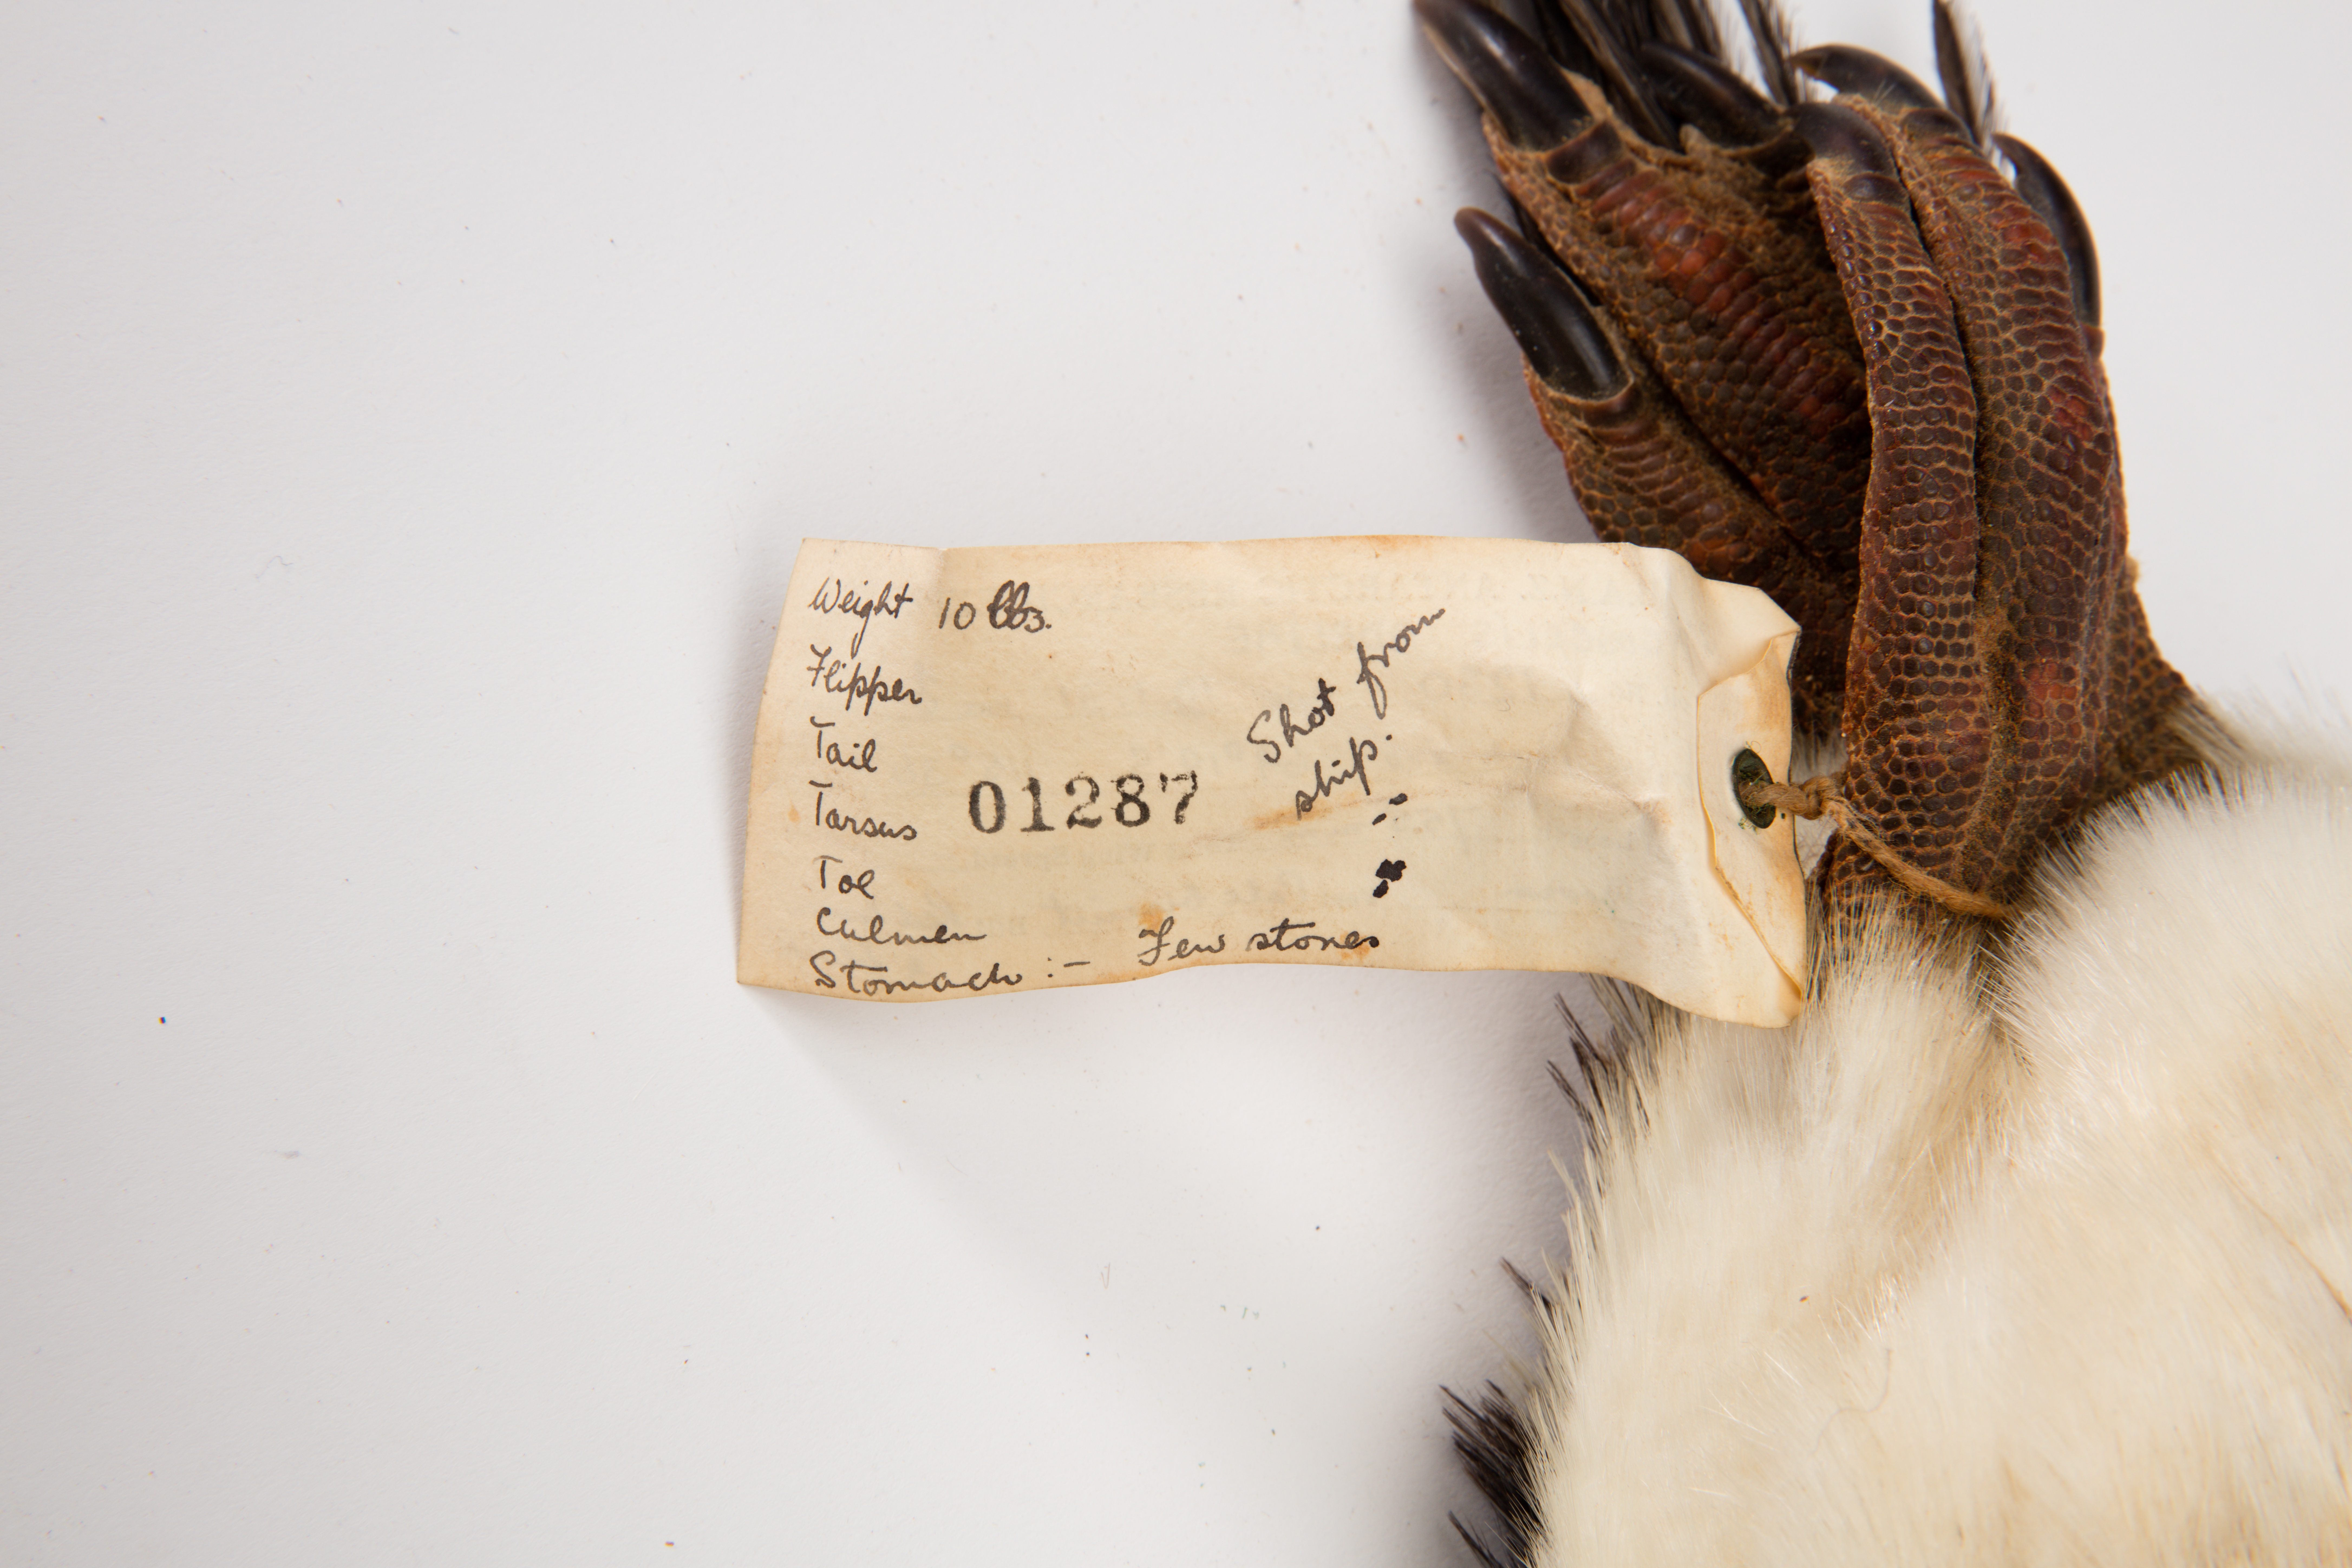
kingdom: Animalia
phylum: Chordata
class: Aves
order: Sphenisciformes
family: Spheniscidae
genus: Pygoscelis
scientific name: Pygoscelis adeliae
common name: Adelie penguin
